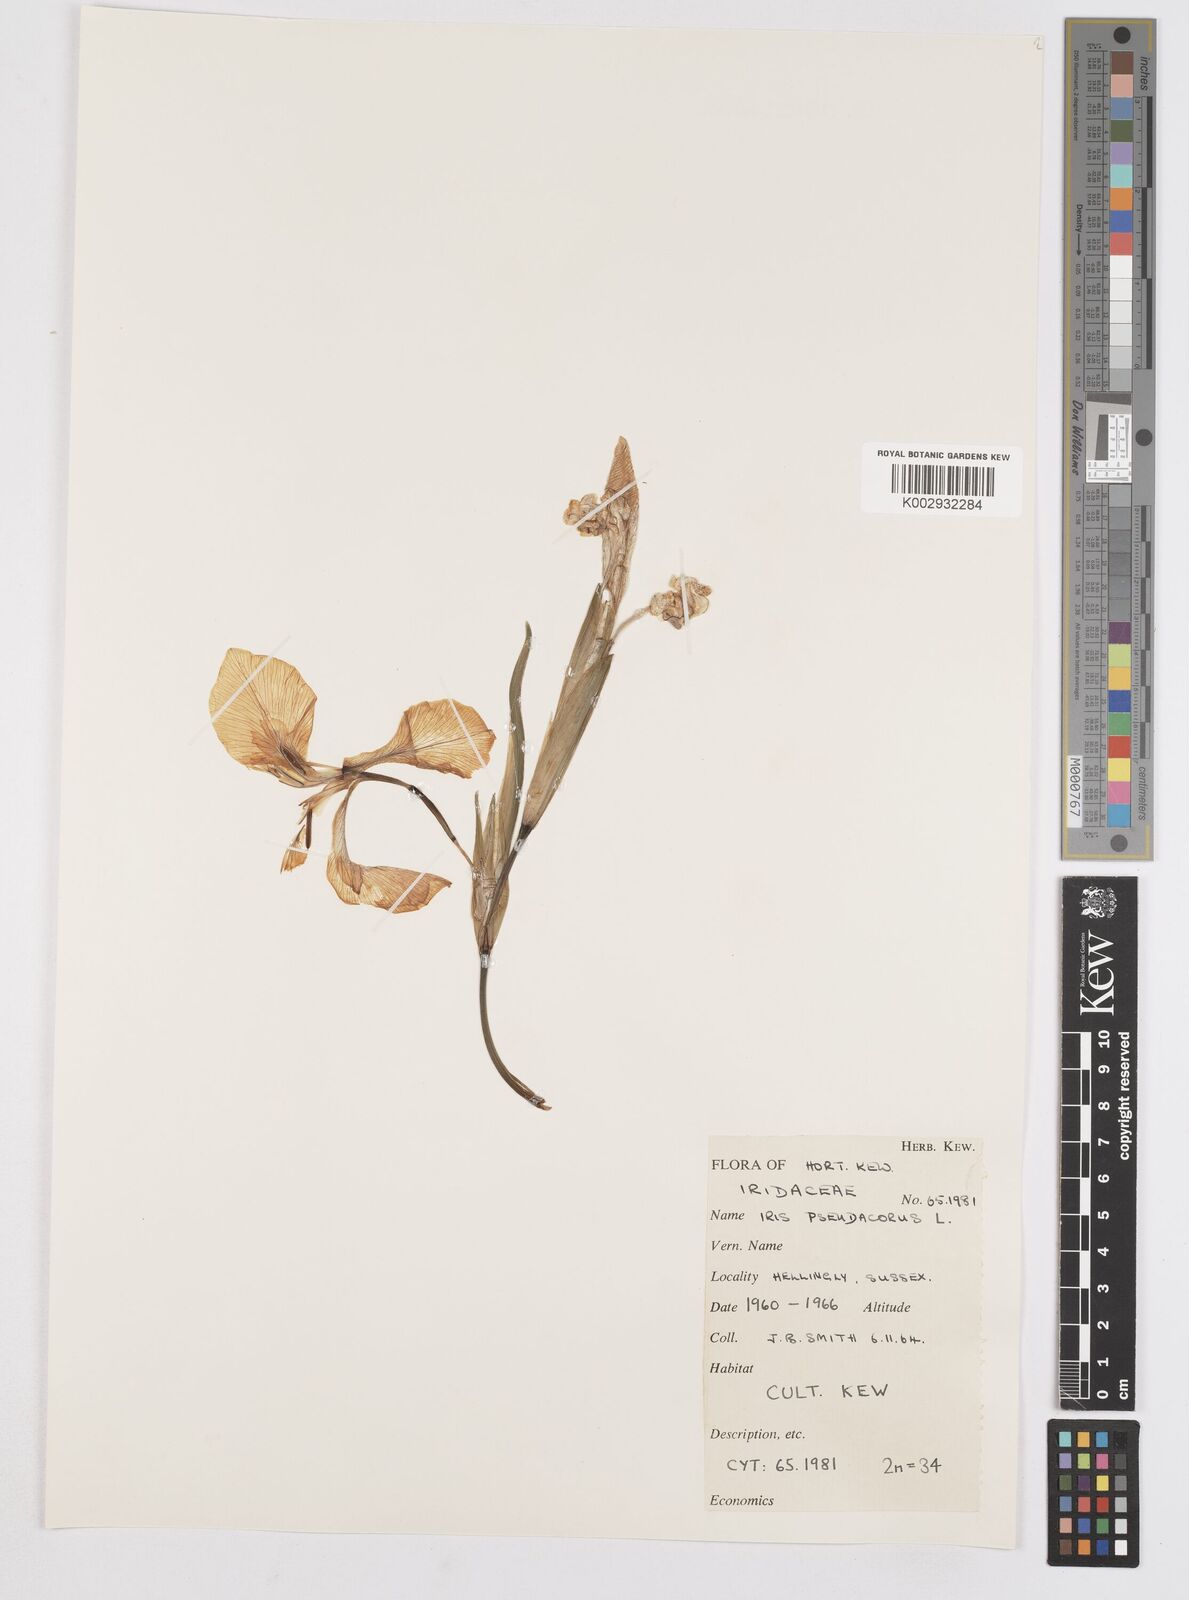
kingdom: Plantae
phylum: Tracheophyta
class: Liliopsida
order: Asparagales
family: Iridaceae
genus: Iris
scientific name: Iris pseudacorus
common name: Yellow flag
